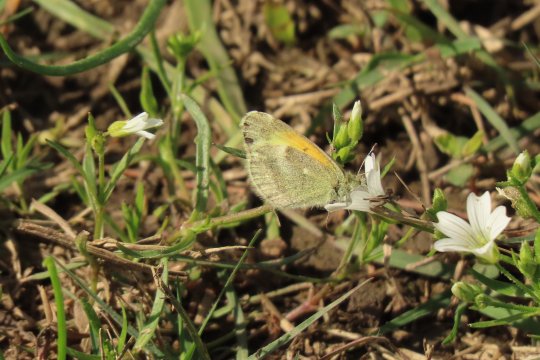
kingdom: Animalia
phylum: Arthropoda
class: Insecta
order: Lepidoptera
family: Pieridae
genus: Nathalis
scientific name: Nathalis iole
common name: Dainty Sulphur
